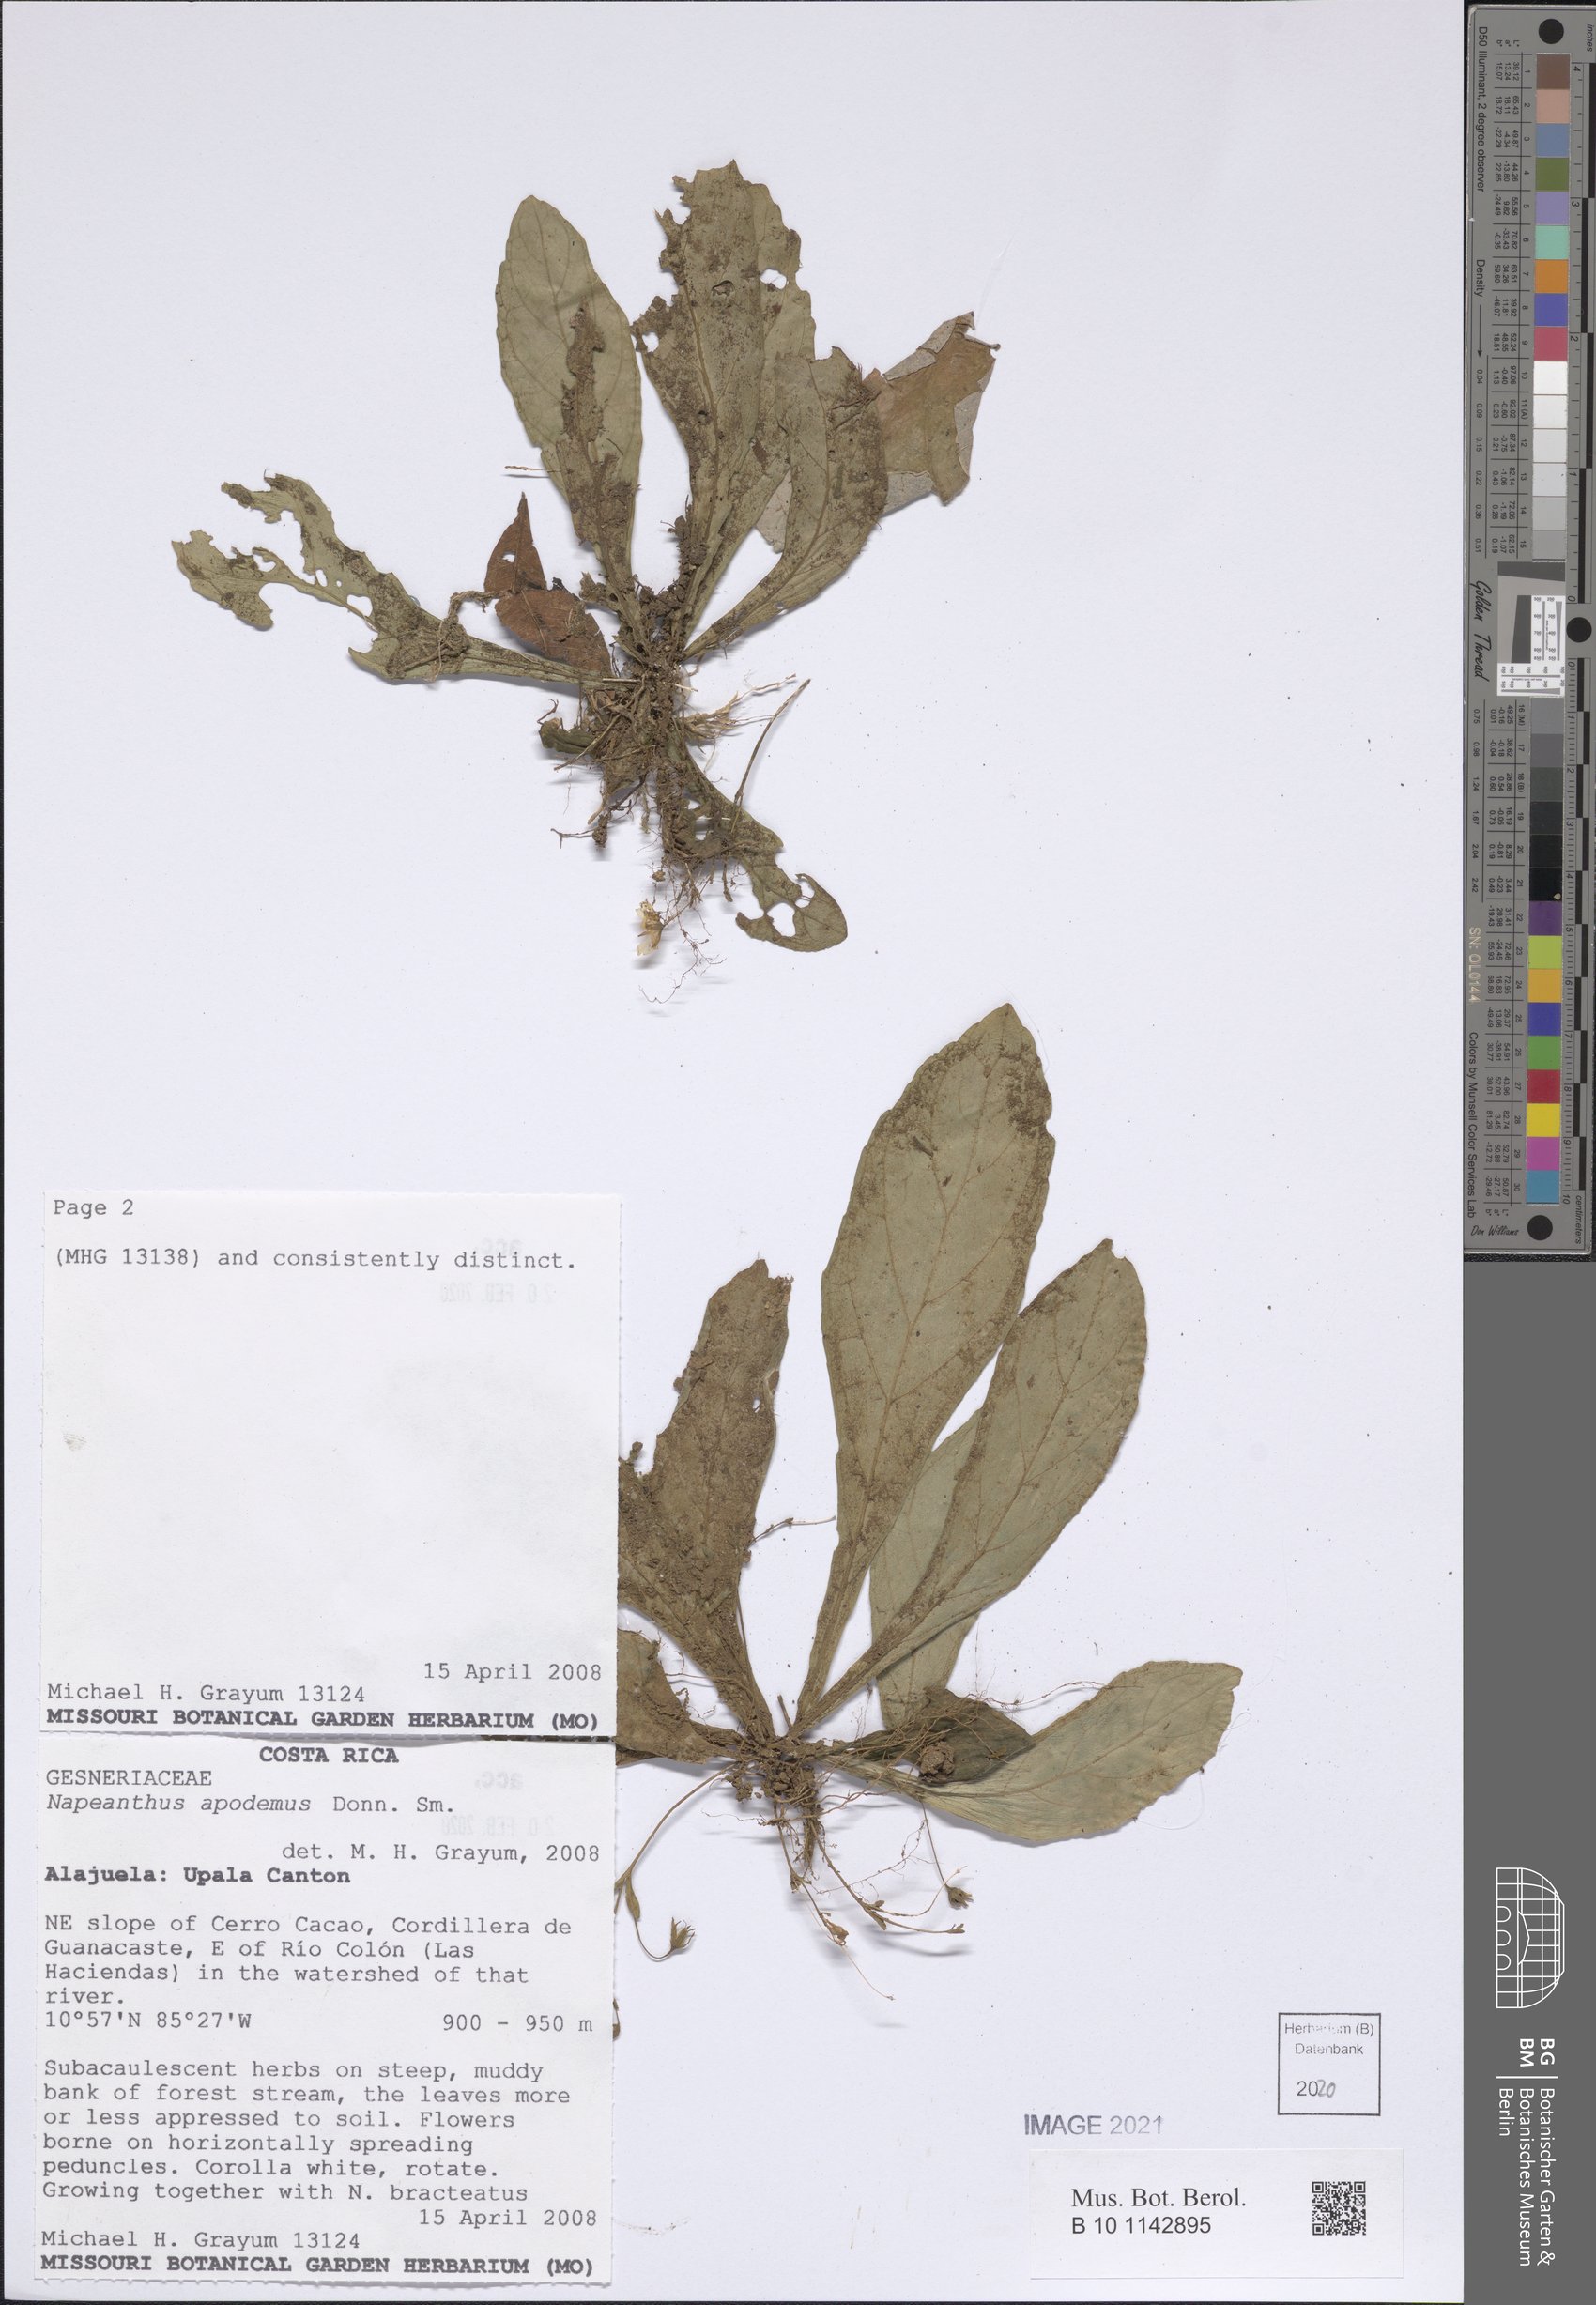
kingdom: Plantae
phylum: Tracheophyta
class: Magnoliopsida
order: Lamiales
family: Gesneriaceae
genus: Napeanthus
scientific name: Napeanthus apodemus
